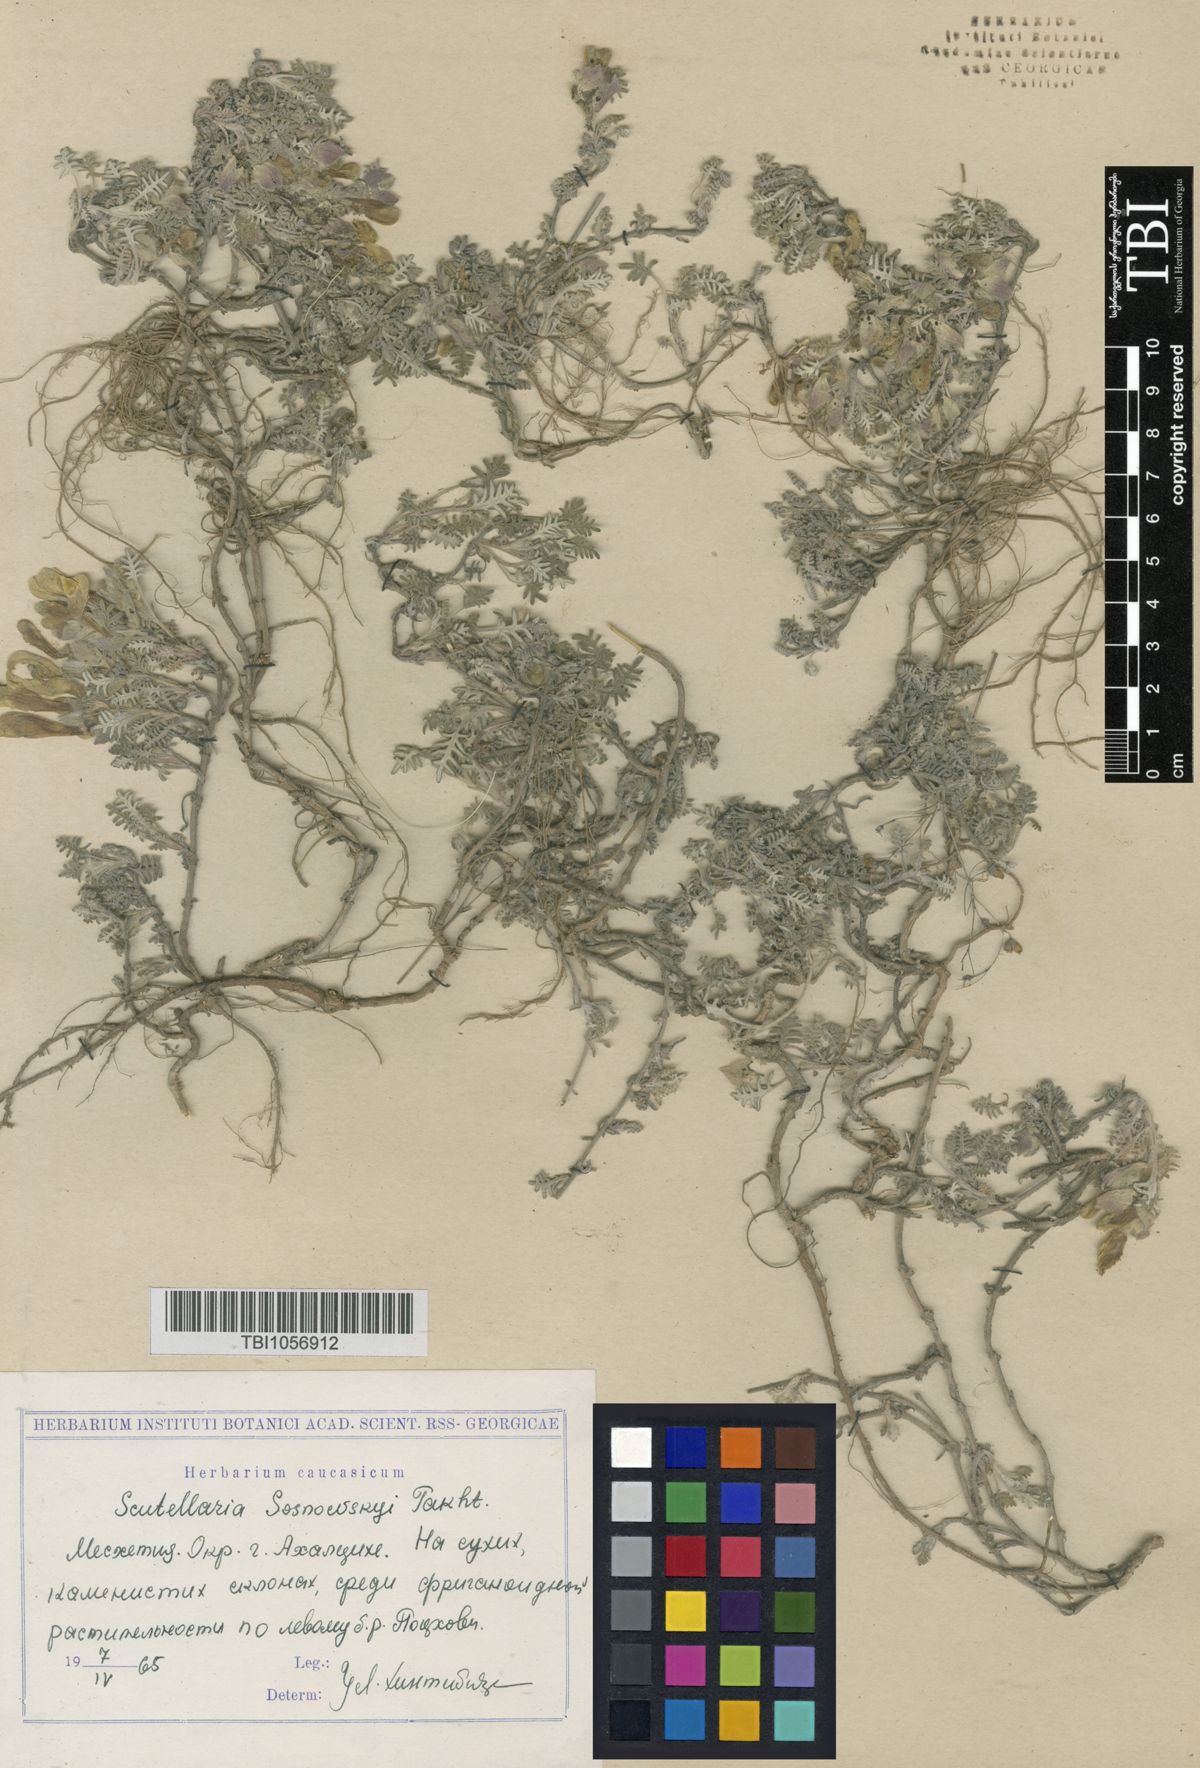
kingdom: Plantae
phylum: Tracheophyta
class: Magnoliopsida
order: Lamiales
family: Lamiaceae
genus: Scutellaria
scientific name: Scutellaria sosnowskyi
